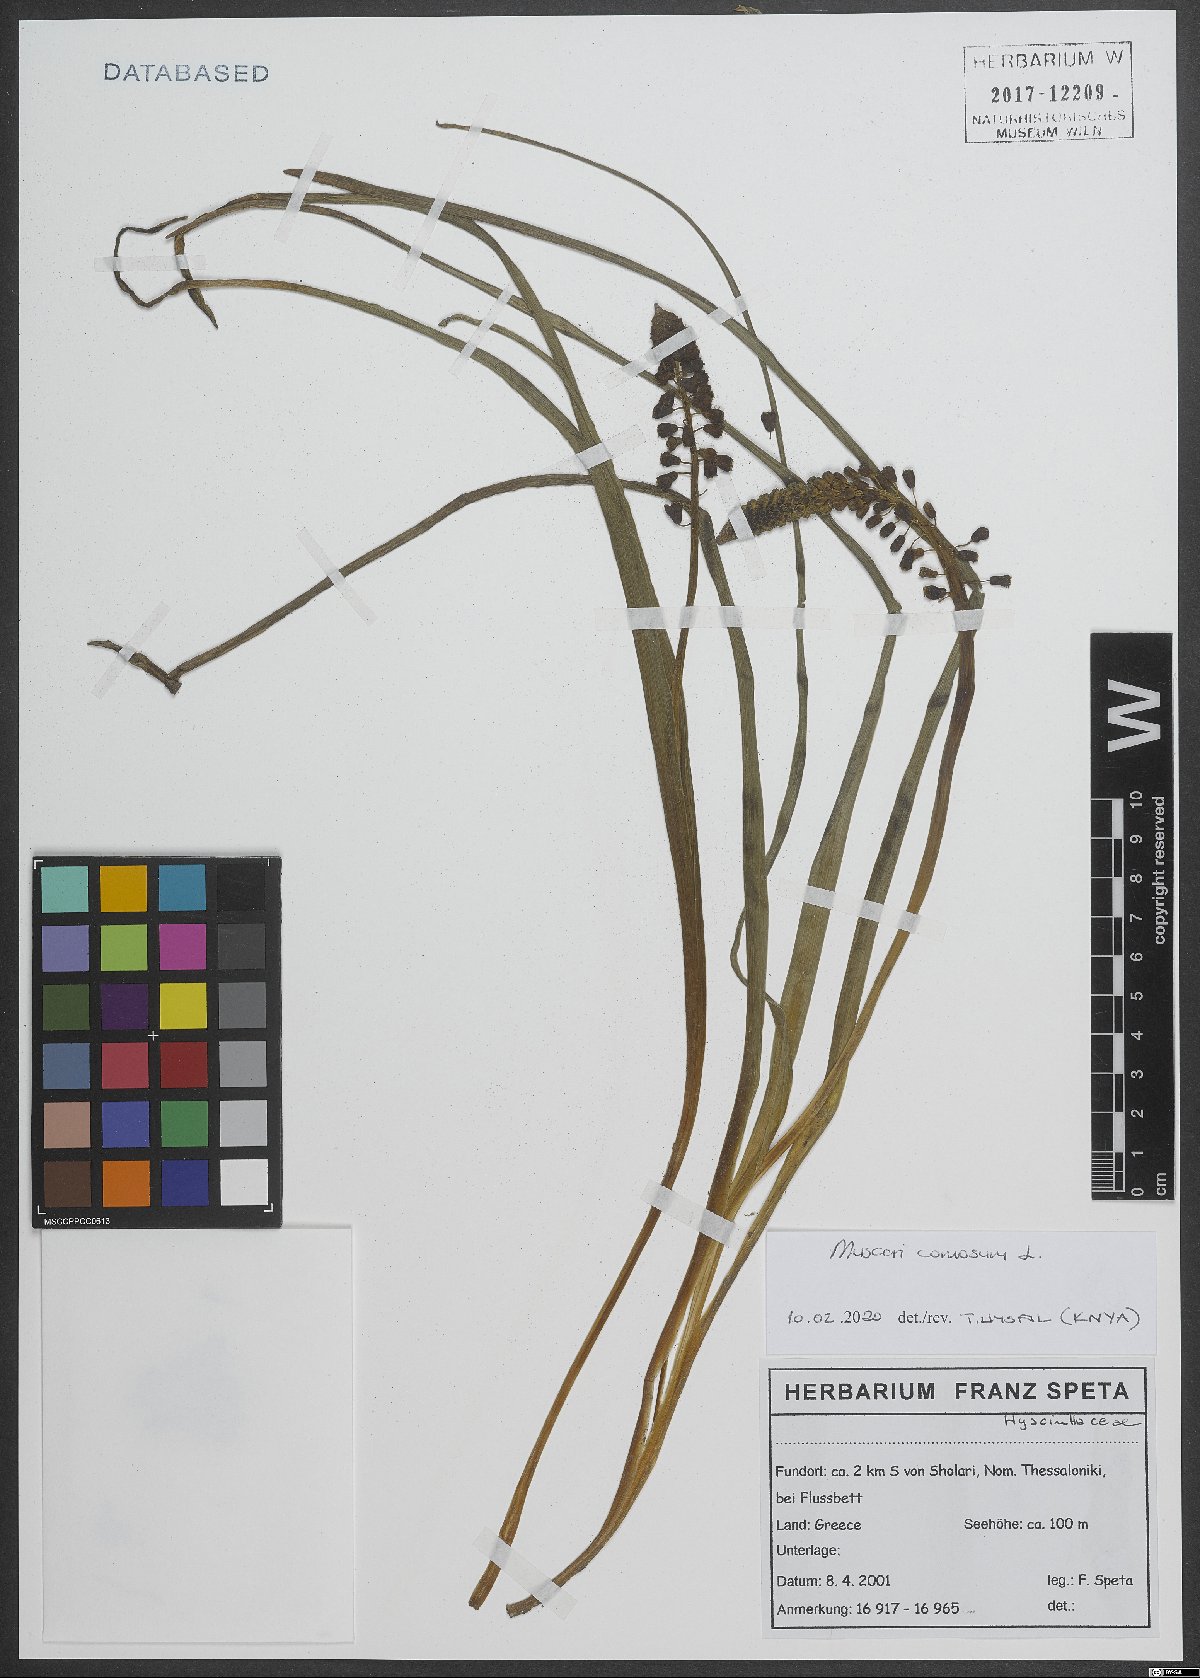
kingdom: Plantae
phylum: Tracheophyta
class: Liliopsida
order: Asparagales
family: Asparagaceae
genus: Muscari
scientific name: Muscari comosum
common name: Tassel hyacinth
